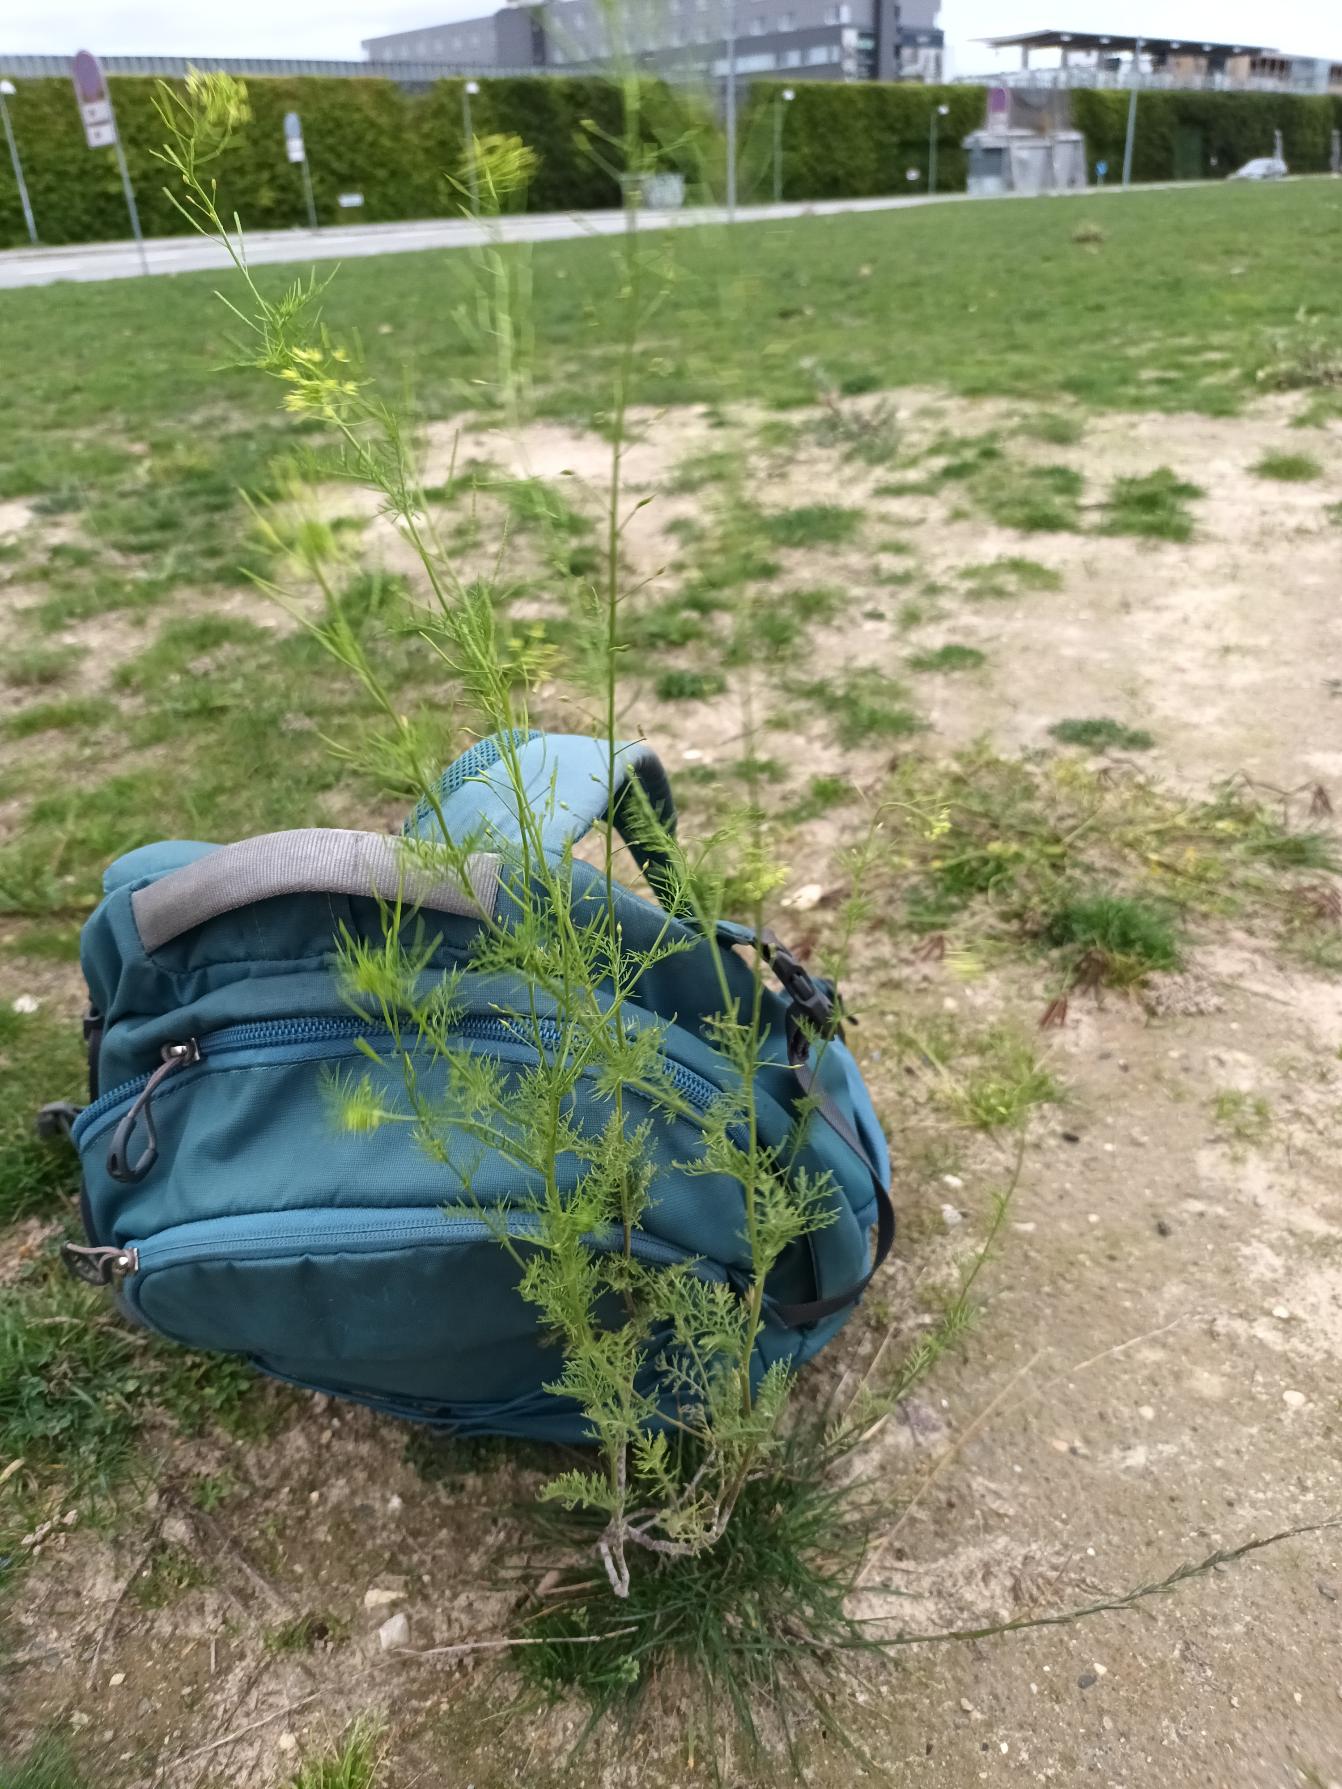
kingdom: Plantae
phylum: Tracheophyta
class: Magnoliopsida
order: Brassicales
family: Brassicaceae
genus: Descurainia
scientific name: Descurainia sophia
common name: Finbladet vejsennep
